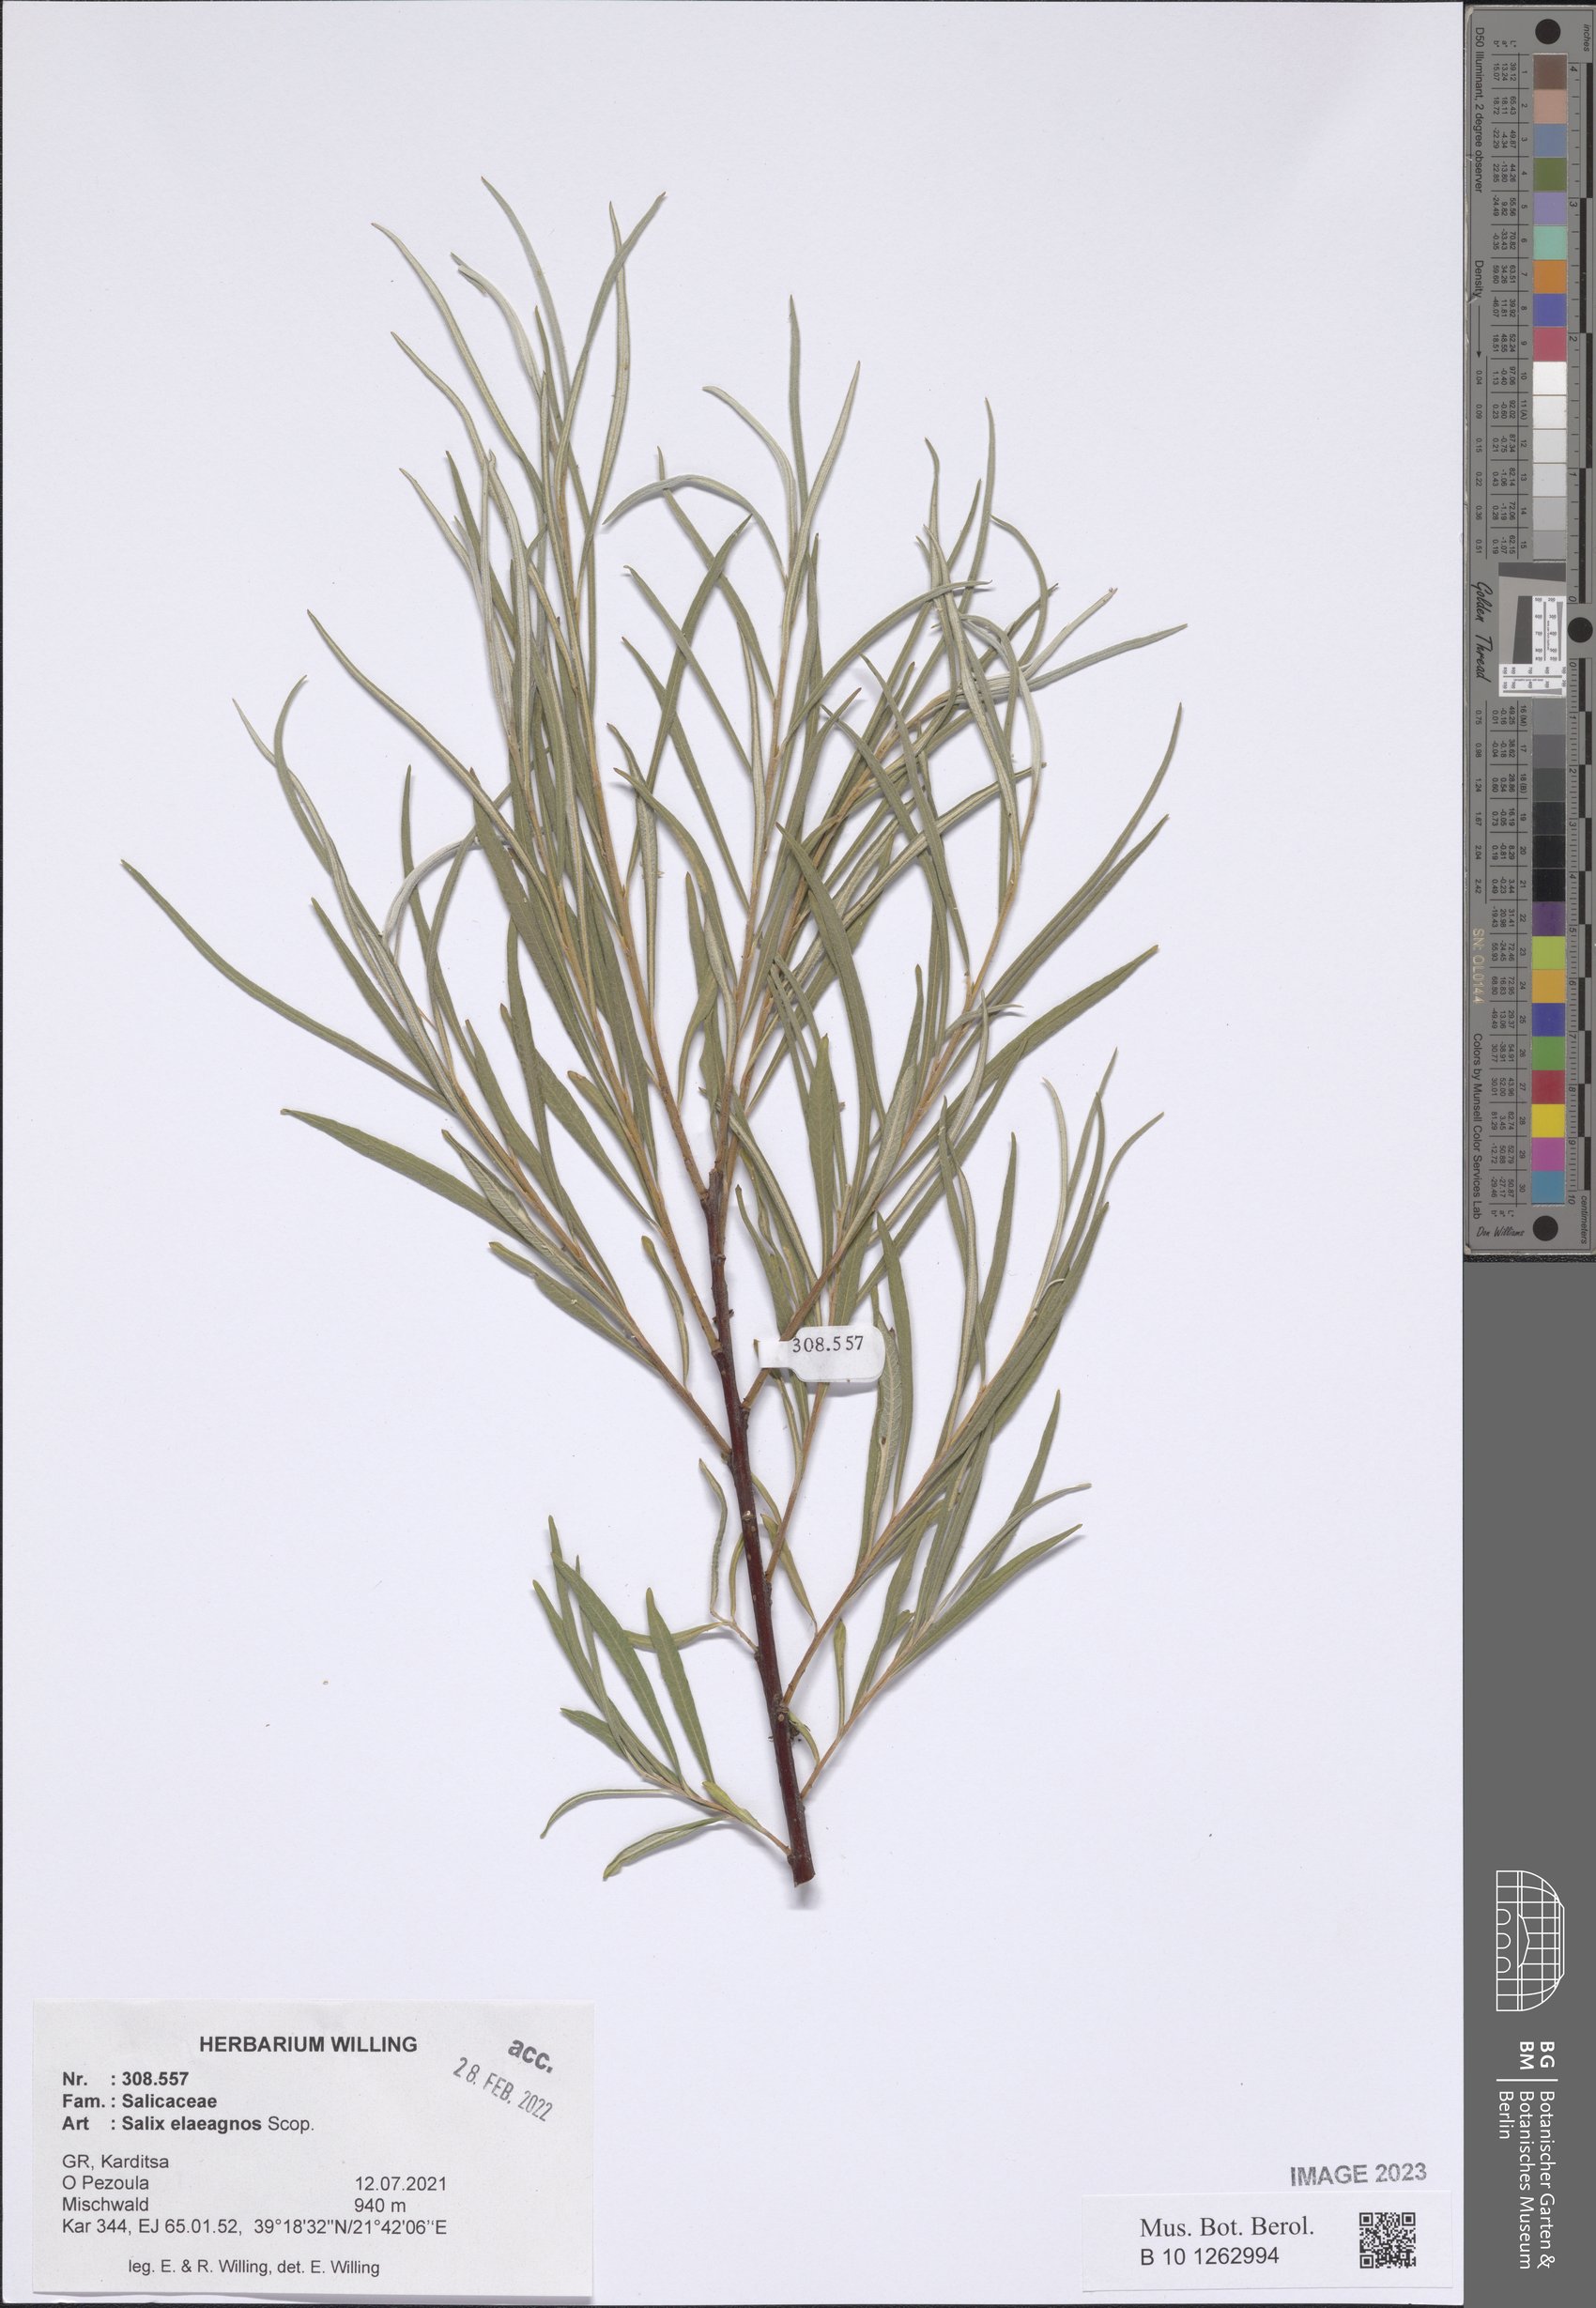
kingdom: Plantae
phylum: Tracheophyta
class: Magnoliopsida
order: Malpighiales
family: Salicaceae
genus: Salix
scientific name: Salix eleagnos
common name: Elaeagnus willow
